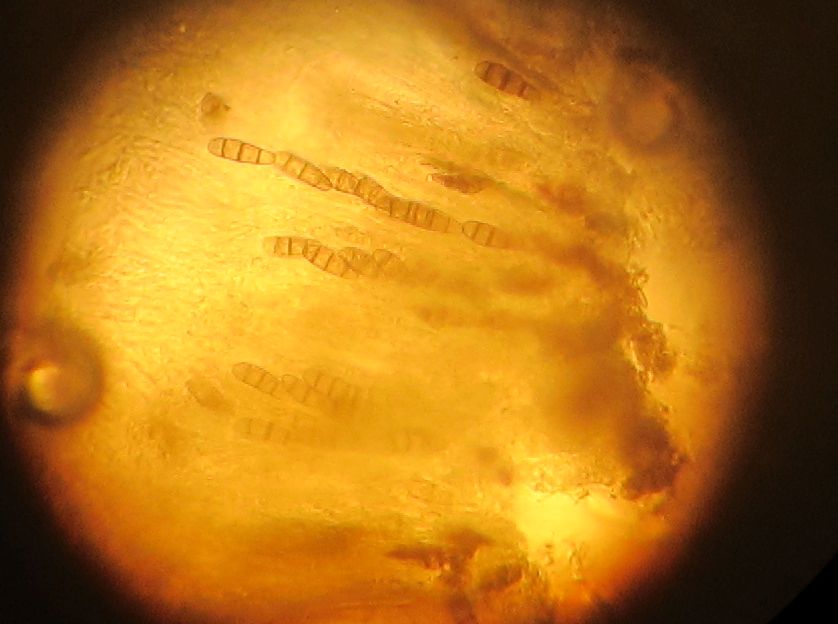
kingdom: Fungi
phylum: Ascomycota
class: Dothideomycetes
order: Hysteriales
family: Hysteriaceae
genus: Hysterium
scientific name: Hysterium pulicare
